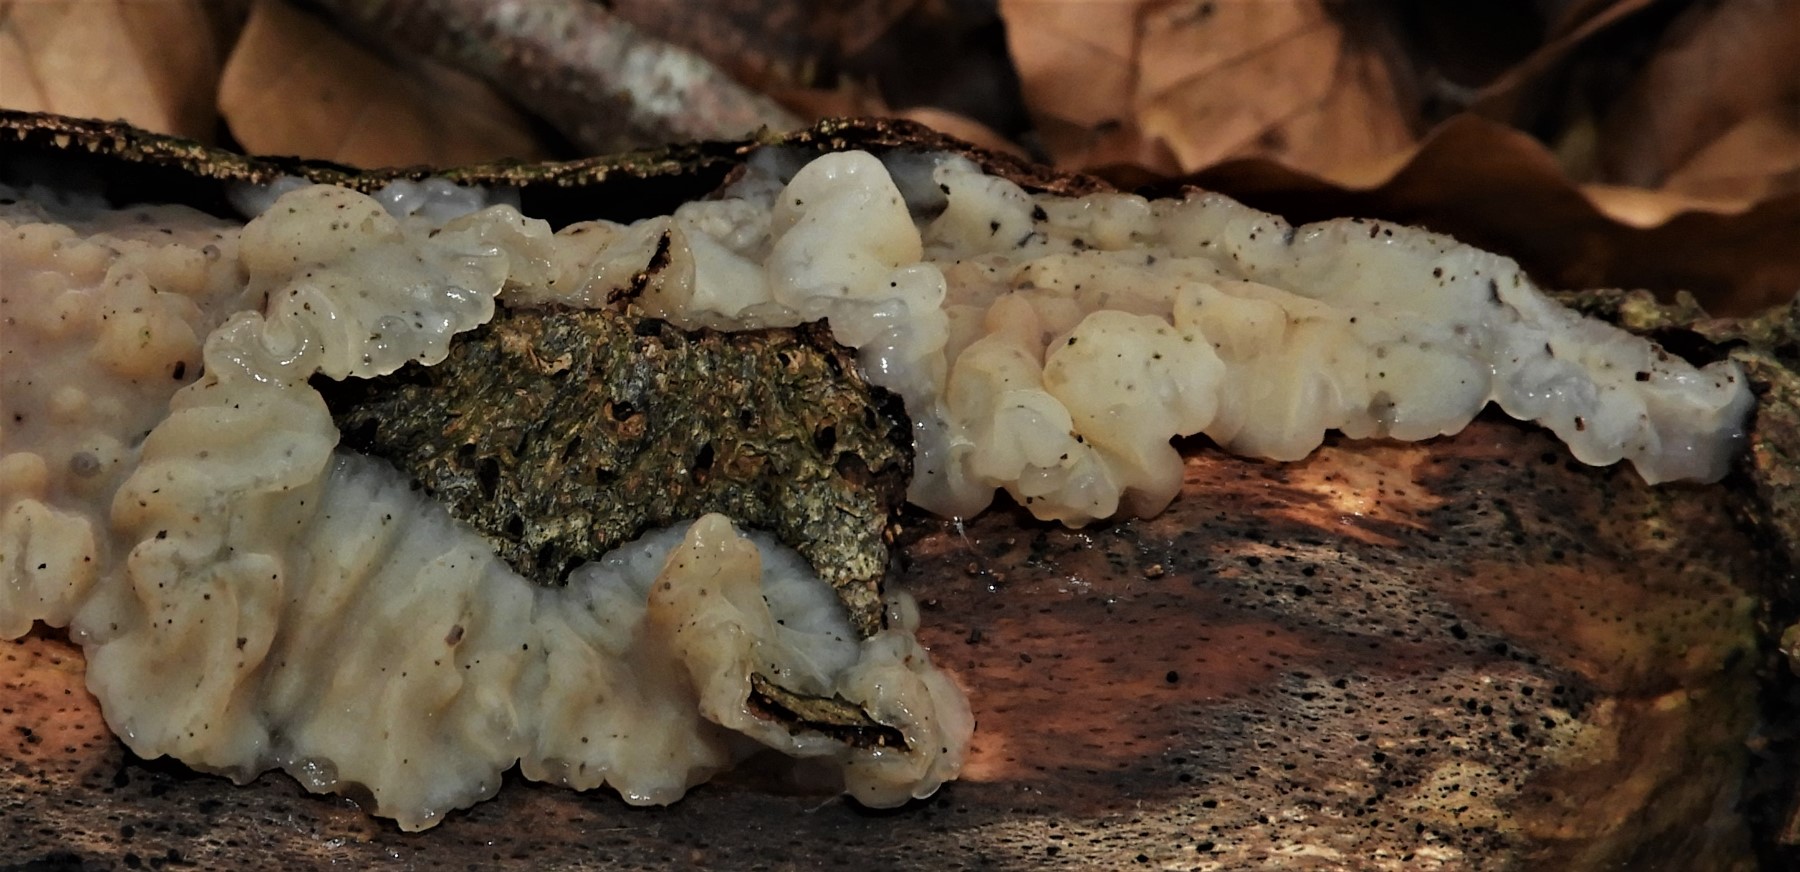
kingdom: Fungi
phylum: Basidiomycota
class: Agaricomycetes
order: Auriculariales
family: Auriculariaceae
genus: Exidia
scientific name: Exidia thuretiana
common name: hvidlig bævretop
